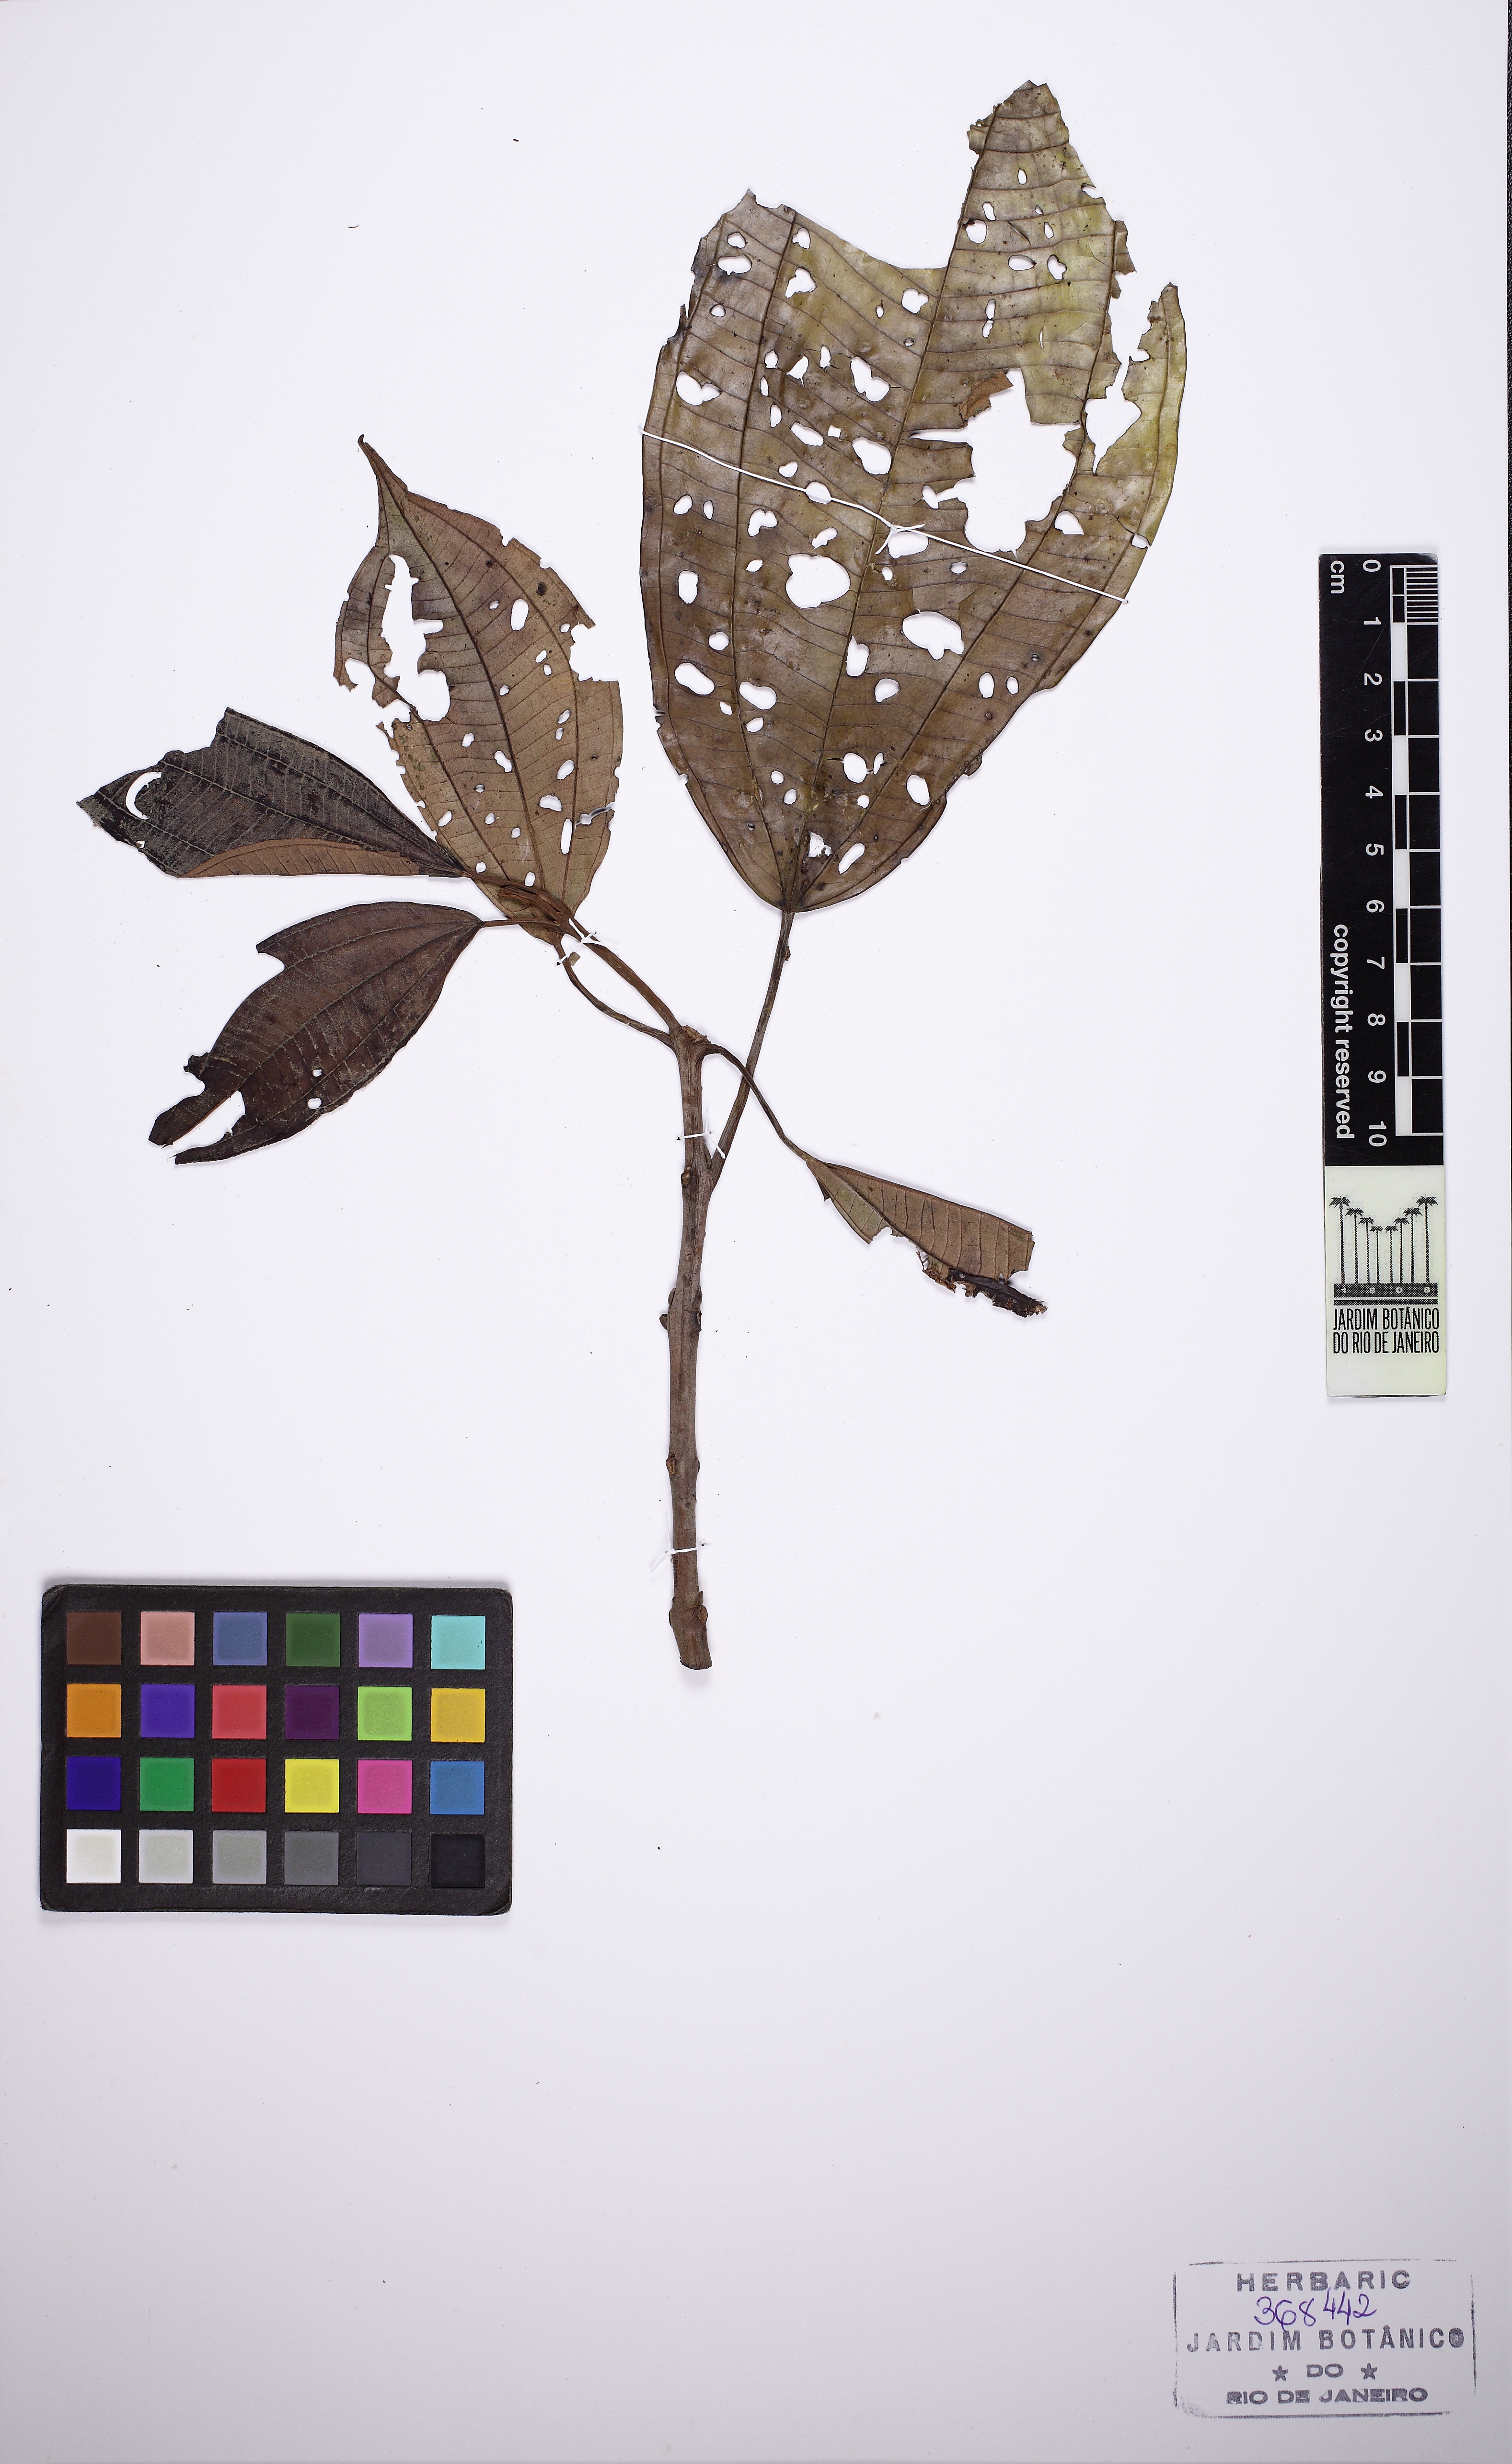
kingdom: Plantae
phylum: Tracheophyta
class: Magnoliopsida
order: Myrtales
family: Melastomataceae
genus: Miconia
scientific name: Miconia oraria
